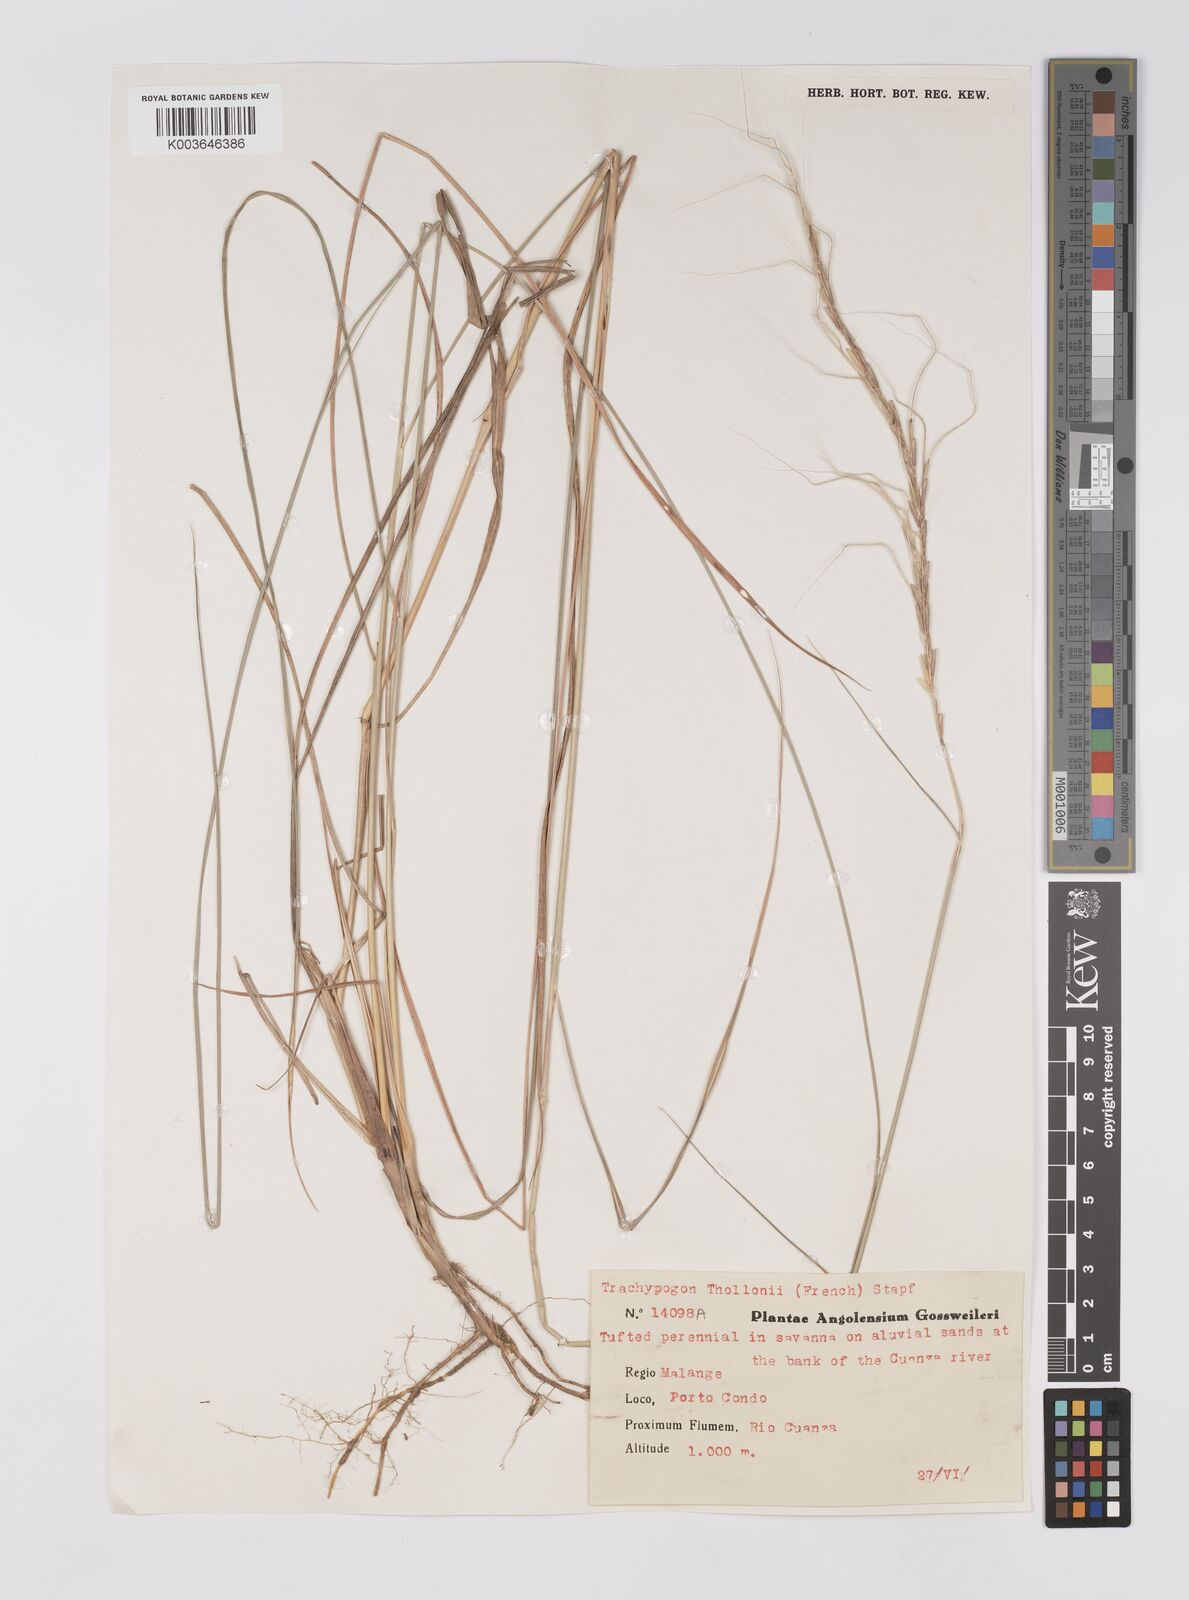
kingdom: Plantae
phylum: Tracheophyta
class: Liliopsida
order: Poales
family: Poaceae
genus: Trachypogon
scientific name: Trachypogon spicatus
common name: Crinkle-awn
